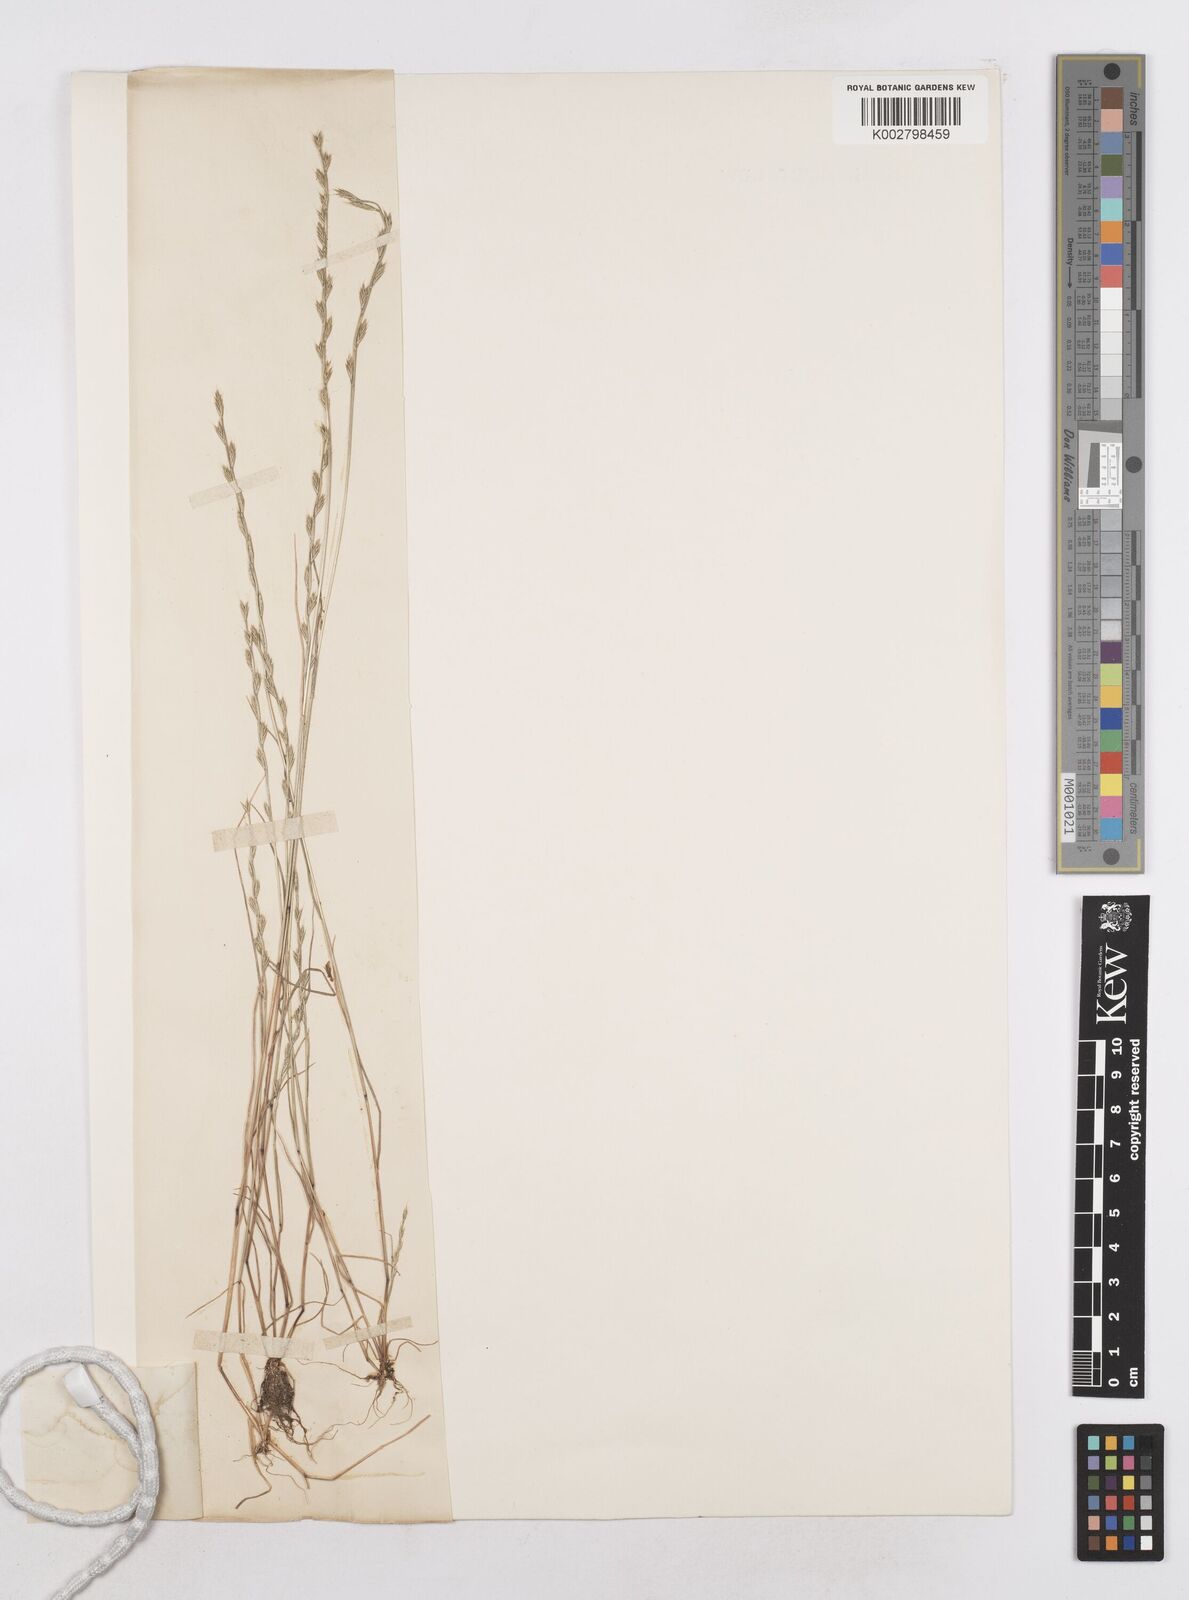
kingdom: Plantae
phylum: Tracheophyta
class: Liliopsida
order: Poales
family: Poaceae
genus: Festuca
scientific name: Festuca lachenalii
